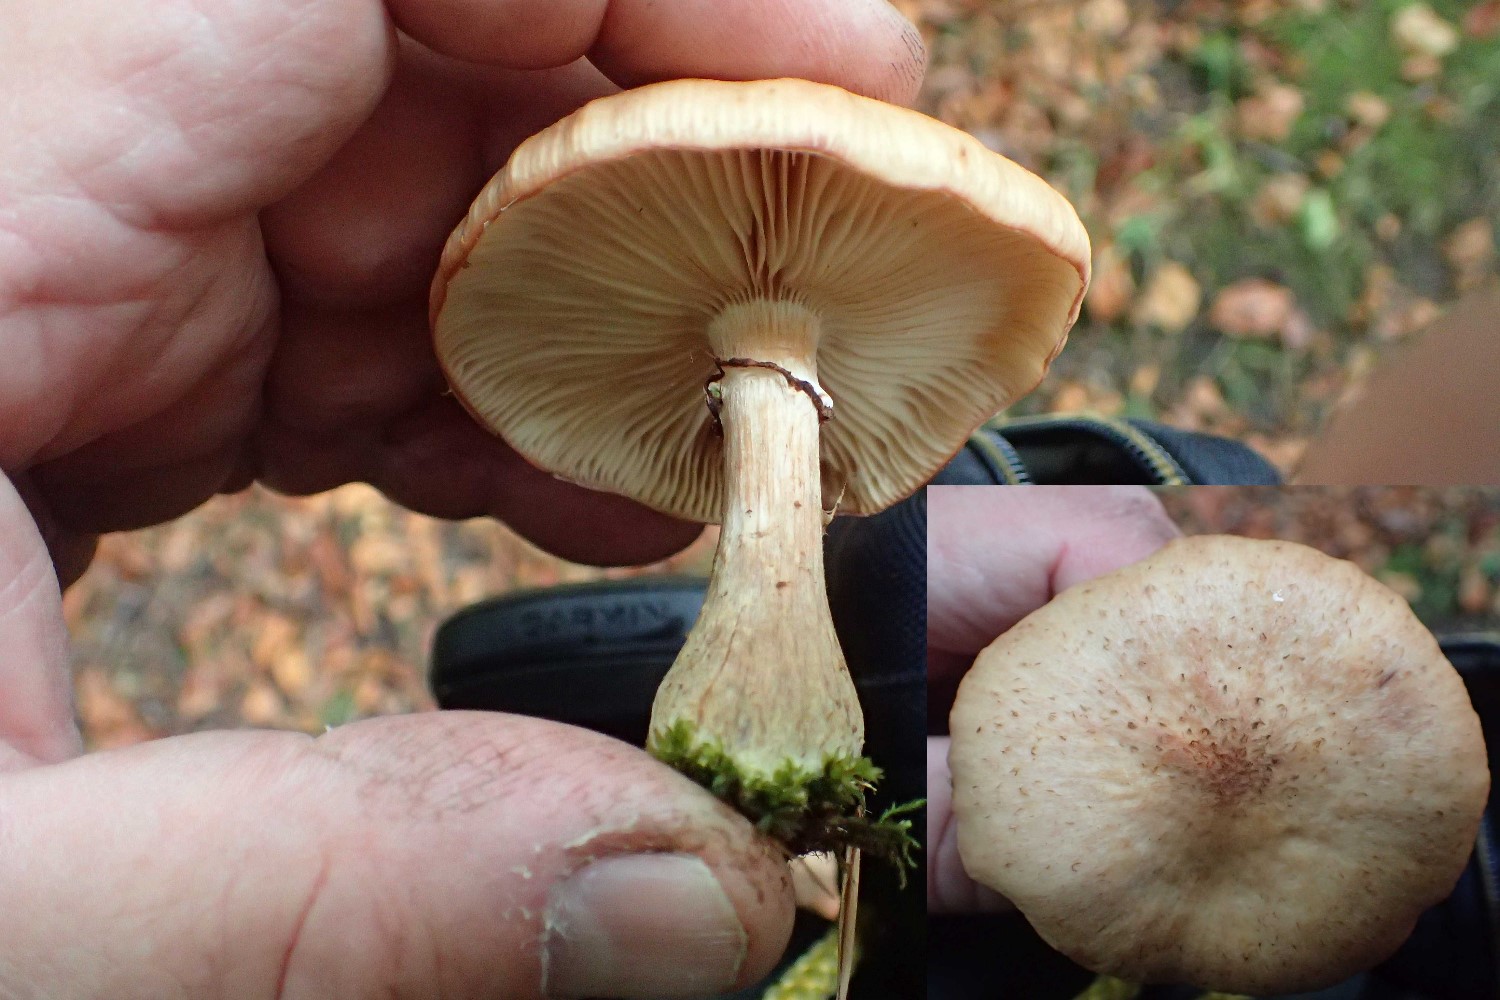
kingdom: Fungi
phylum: Basidiomycota
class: Agaricomycetes
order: Agaricales
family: Physalacriaceae
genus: Armillaria
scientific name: Armillaria lutea
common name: køllestokket honningsvamp
